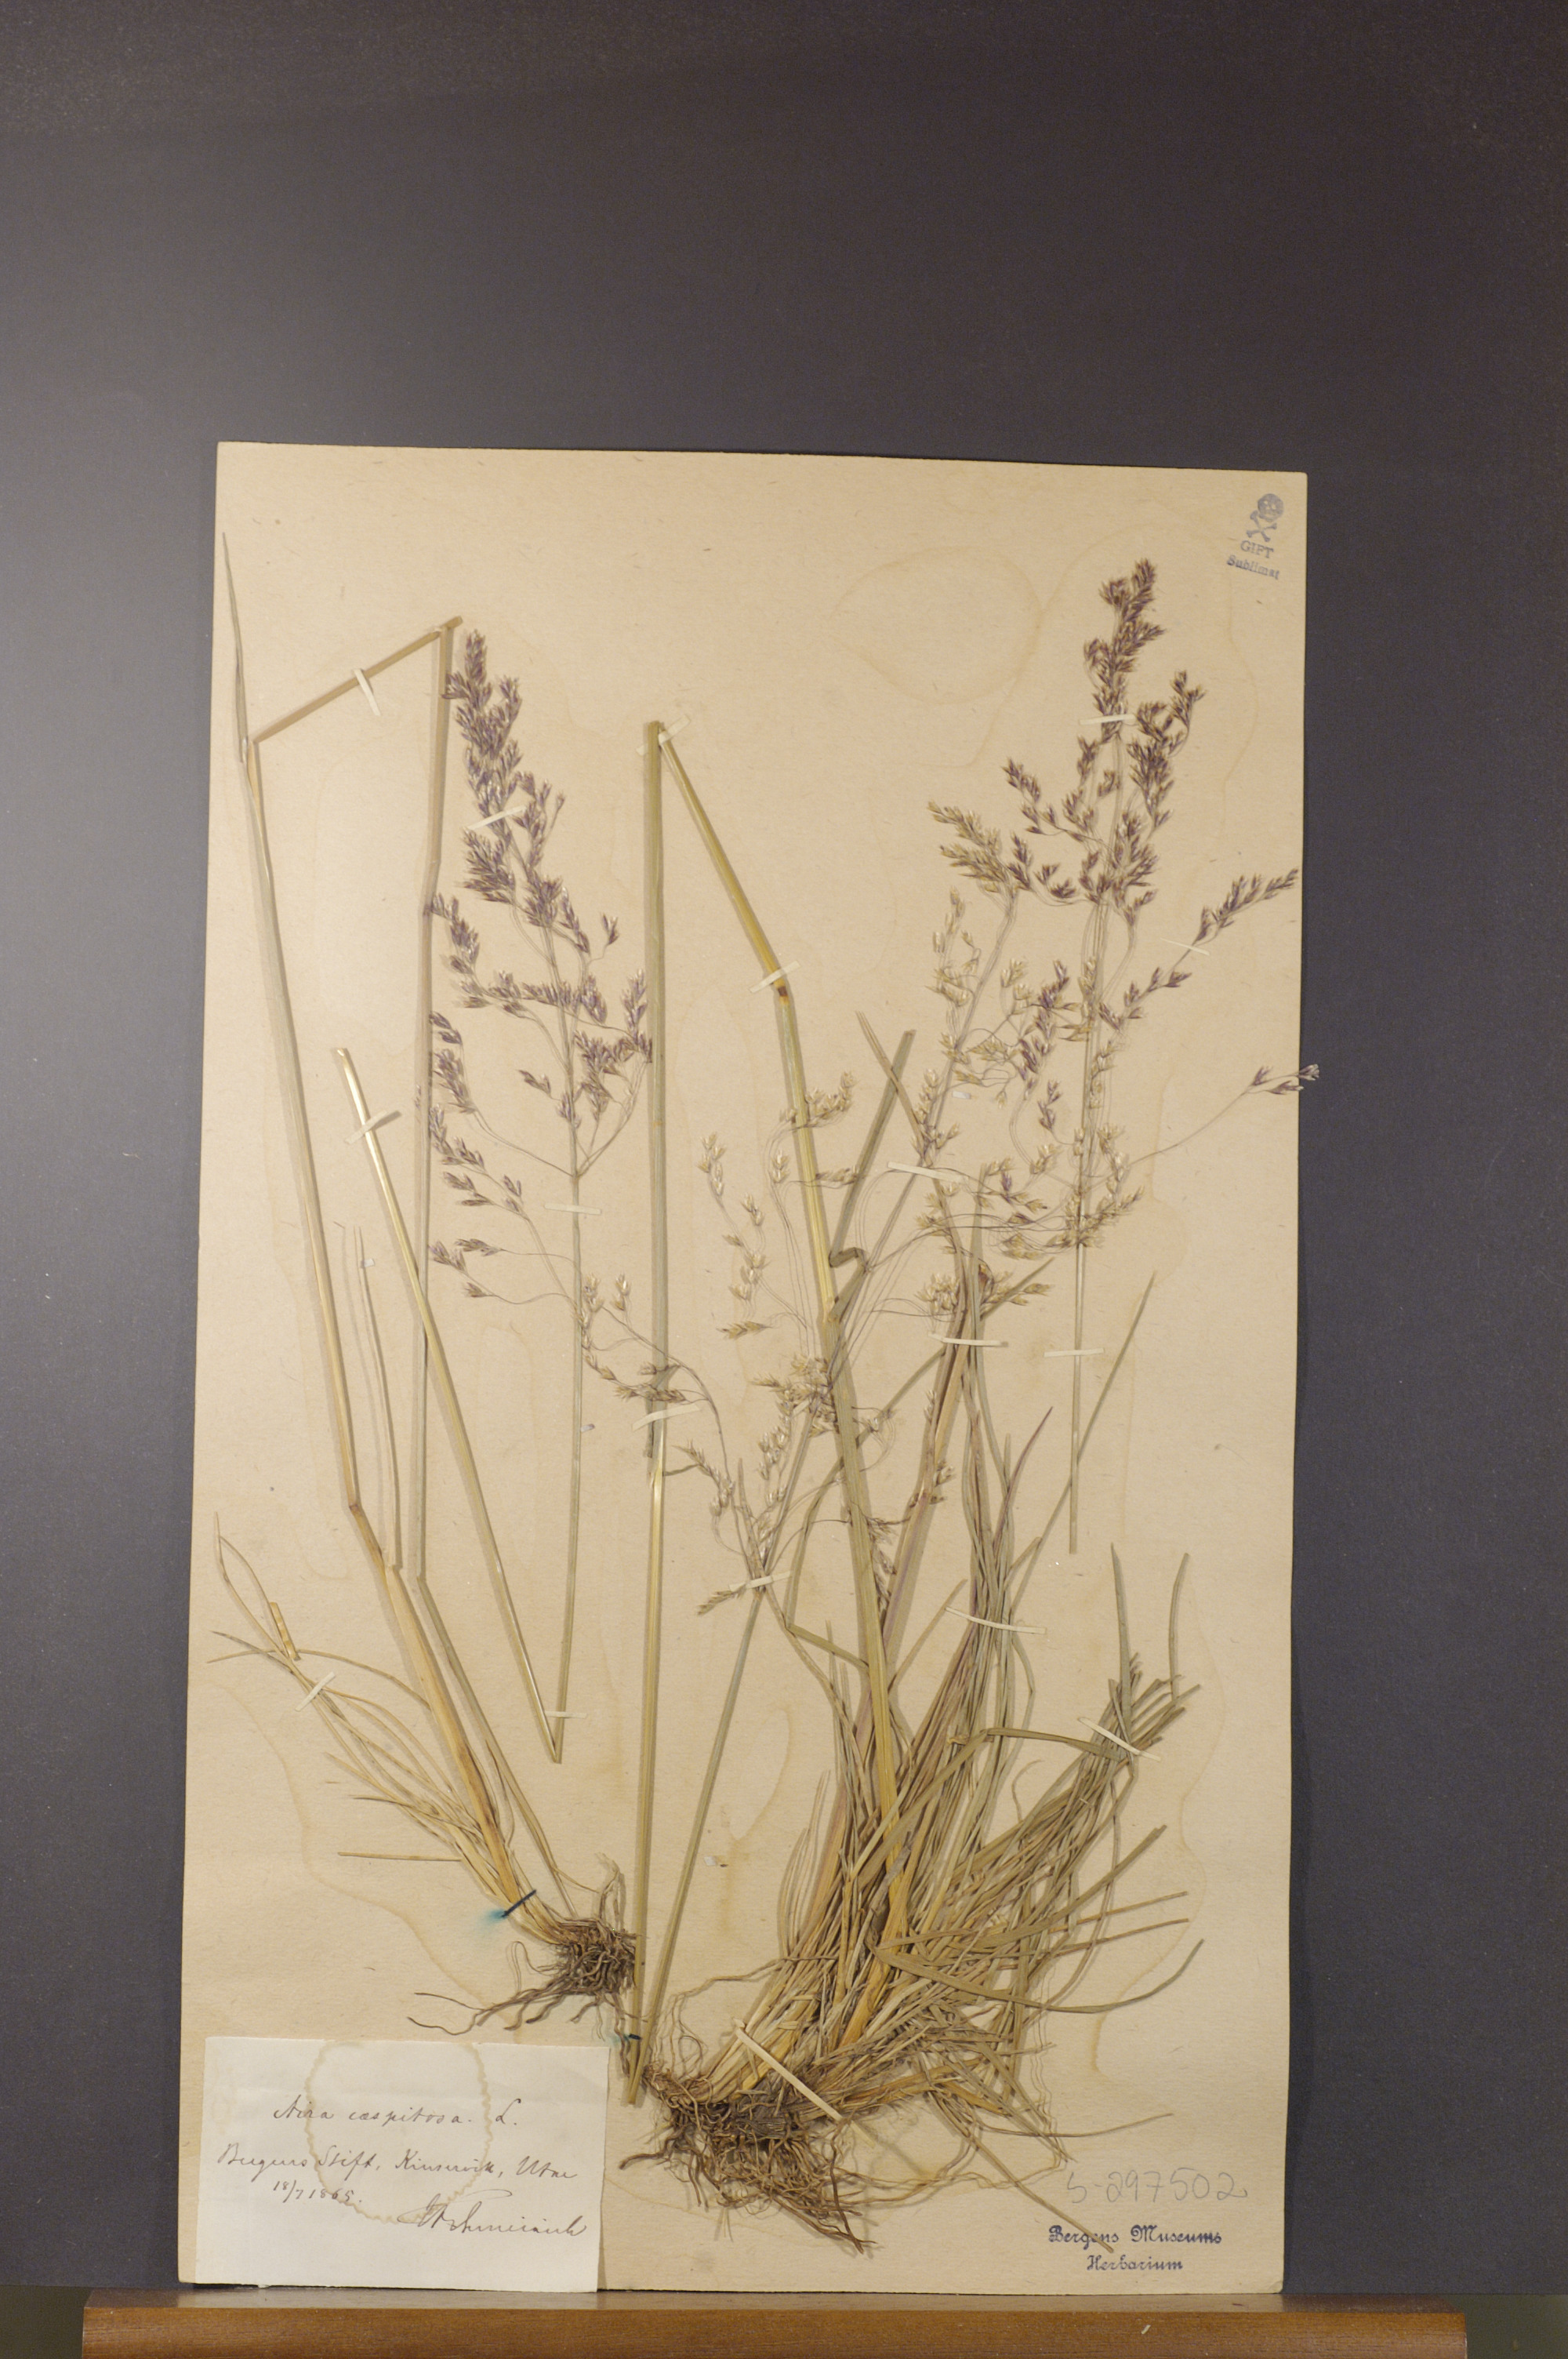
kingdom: Plantae
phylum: Tracheophyta
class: Liliopsida
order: Poales
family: Poaceae
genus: Deschampsia
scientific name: Deschampsia cespitosa
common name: Tufted hair-grass
